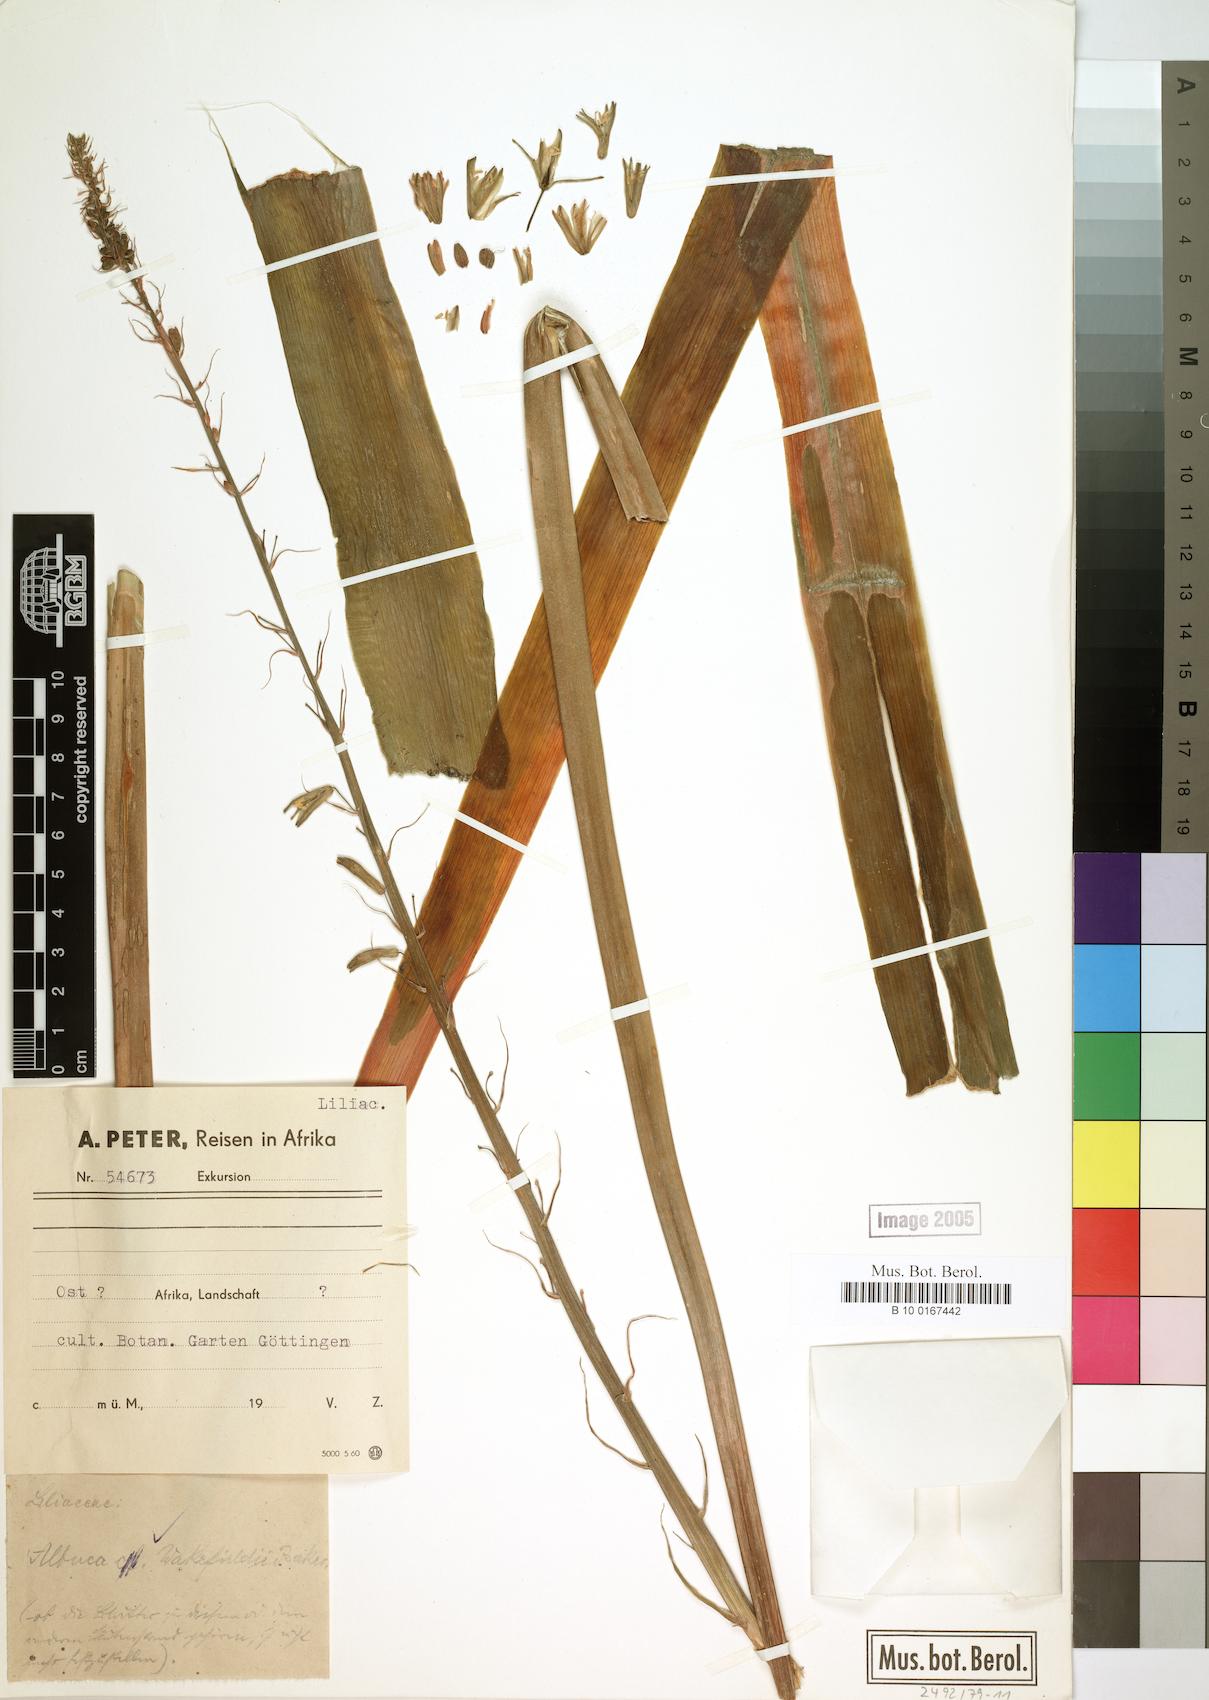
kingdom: Plantae
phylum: Tracheophyta
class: Liliopsida
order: Asparagales
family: Asparagaceae
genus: Albuca
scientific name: Albuca abyssinica
